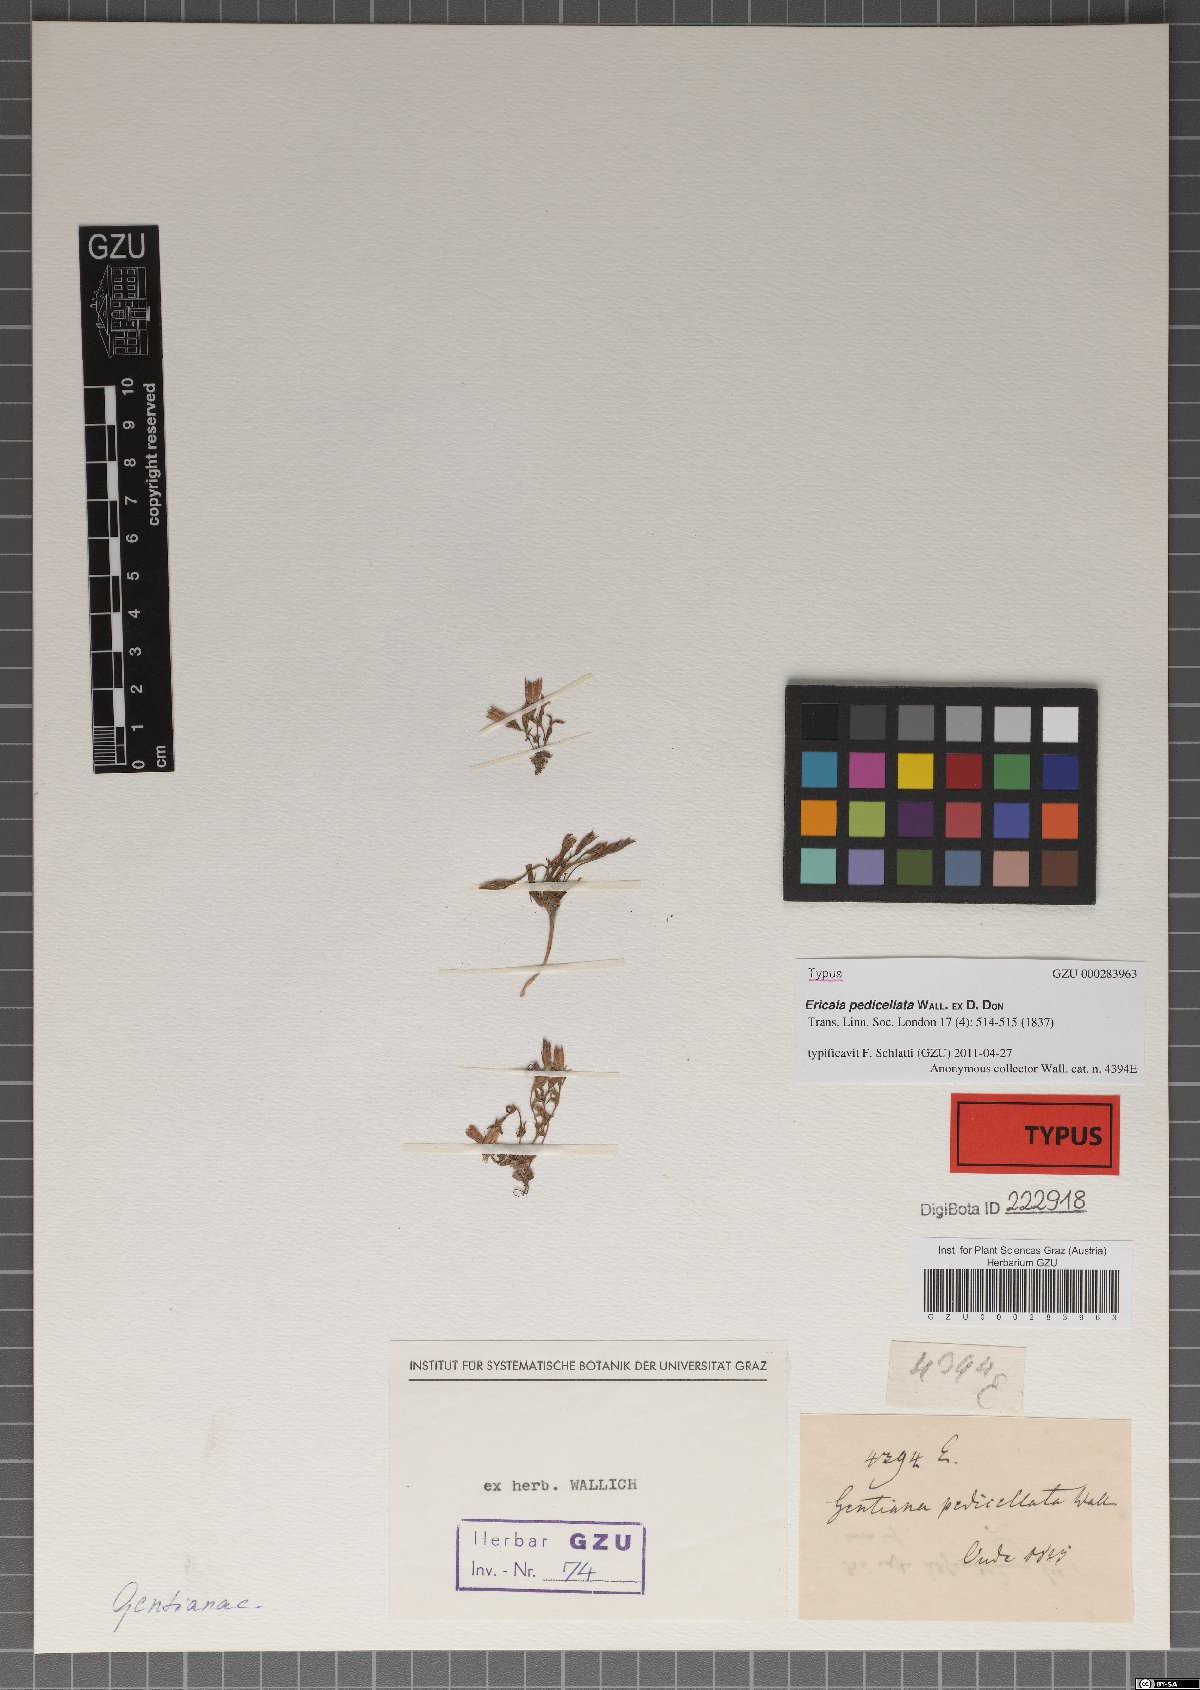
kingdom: Plantae
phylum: Tracheophyta
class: Magnoliopsida
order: Gentianales
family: Gentianaceae
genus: Gentiana
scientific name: Gentiana pedicellata
